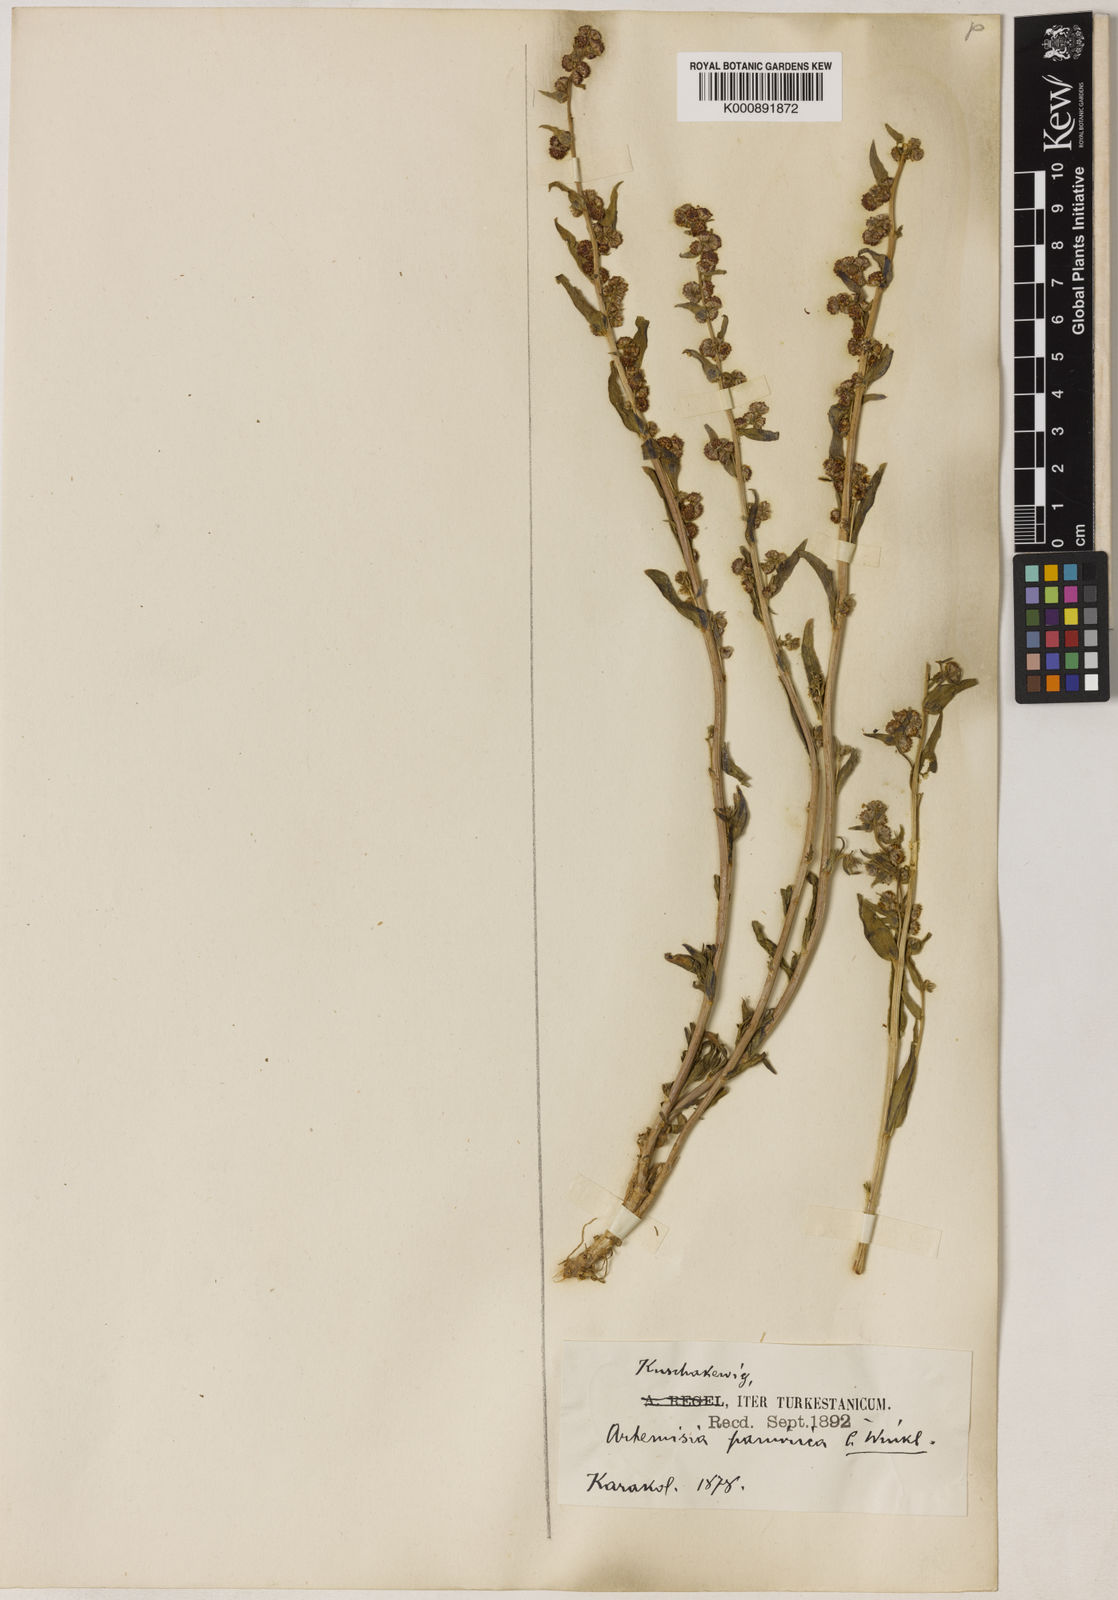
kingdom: Plantae
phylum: Tracheophyta
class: Magnoliopsida
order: Asterales
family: Asteraceae
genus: Artemisia
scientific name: Artemisia dracunculus
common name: Tarragon
